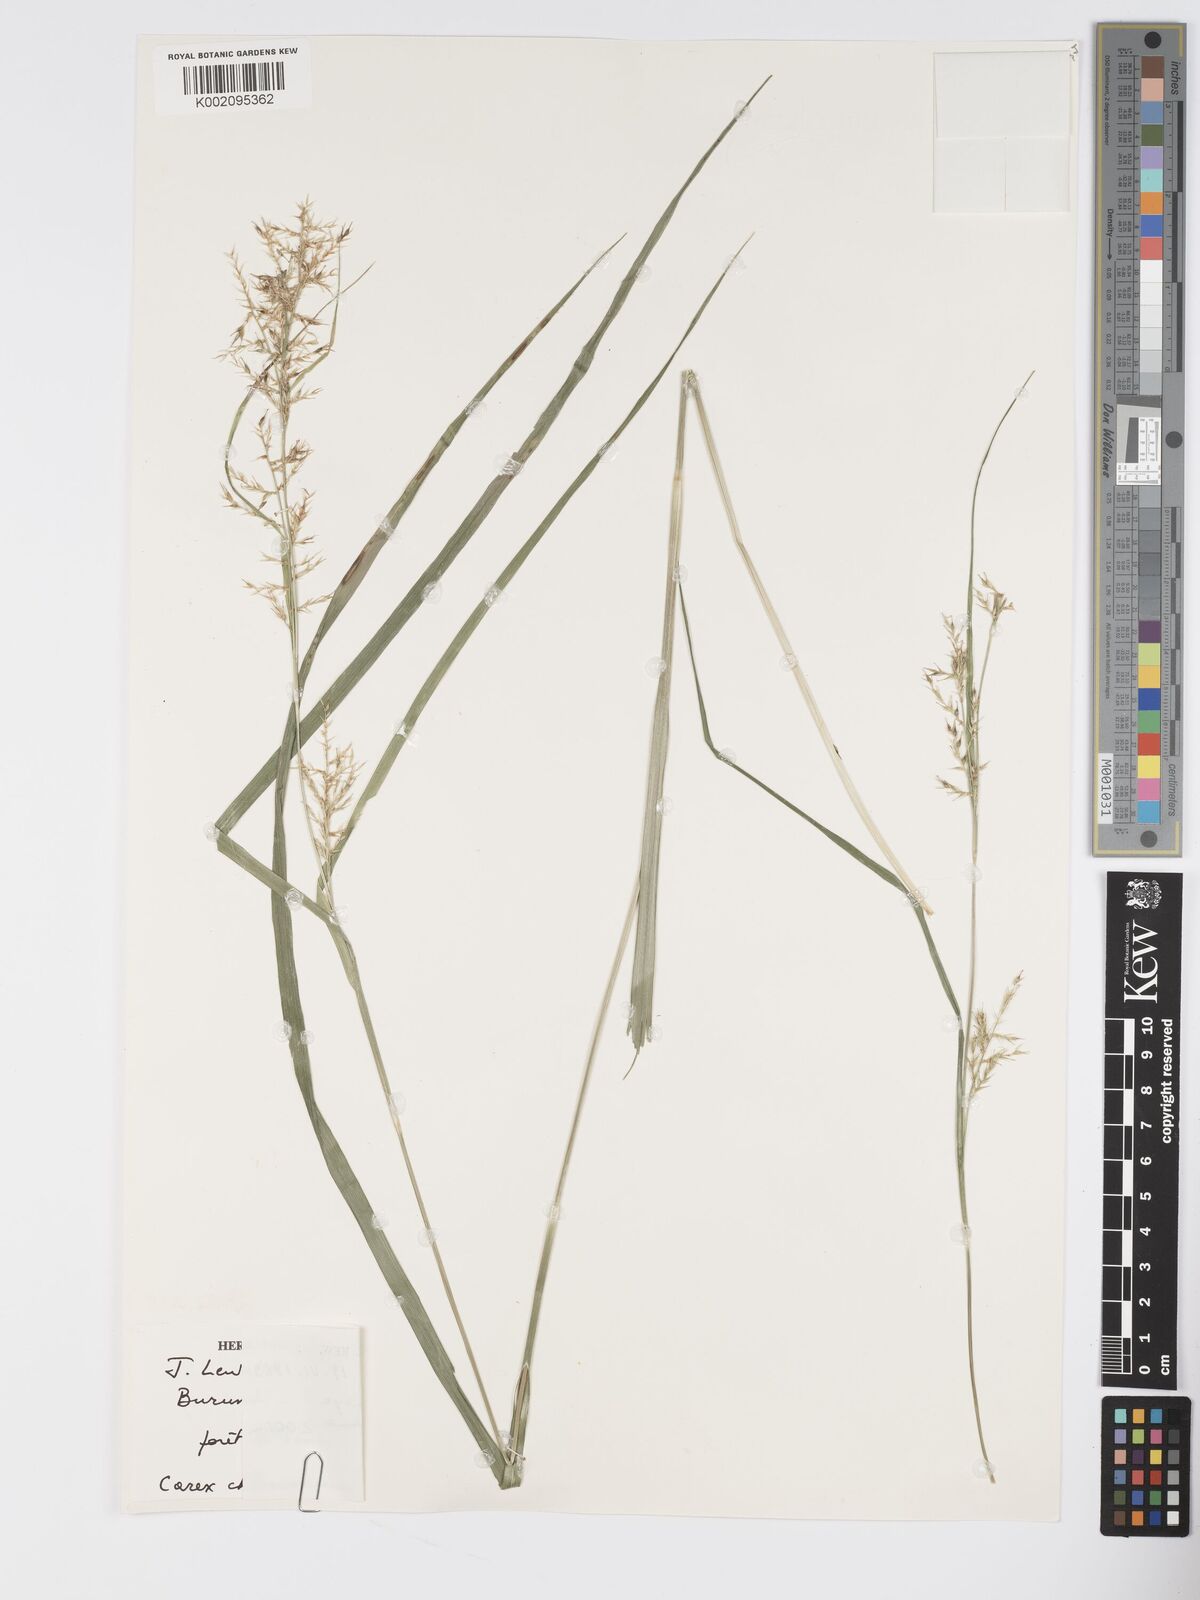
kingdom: Plantae
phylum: Tracheophyta
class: Liliopsida
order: Poales
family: Cyperaceae
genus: Carex
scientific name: Carex chlorosaccus
